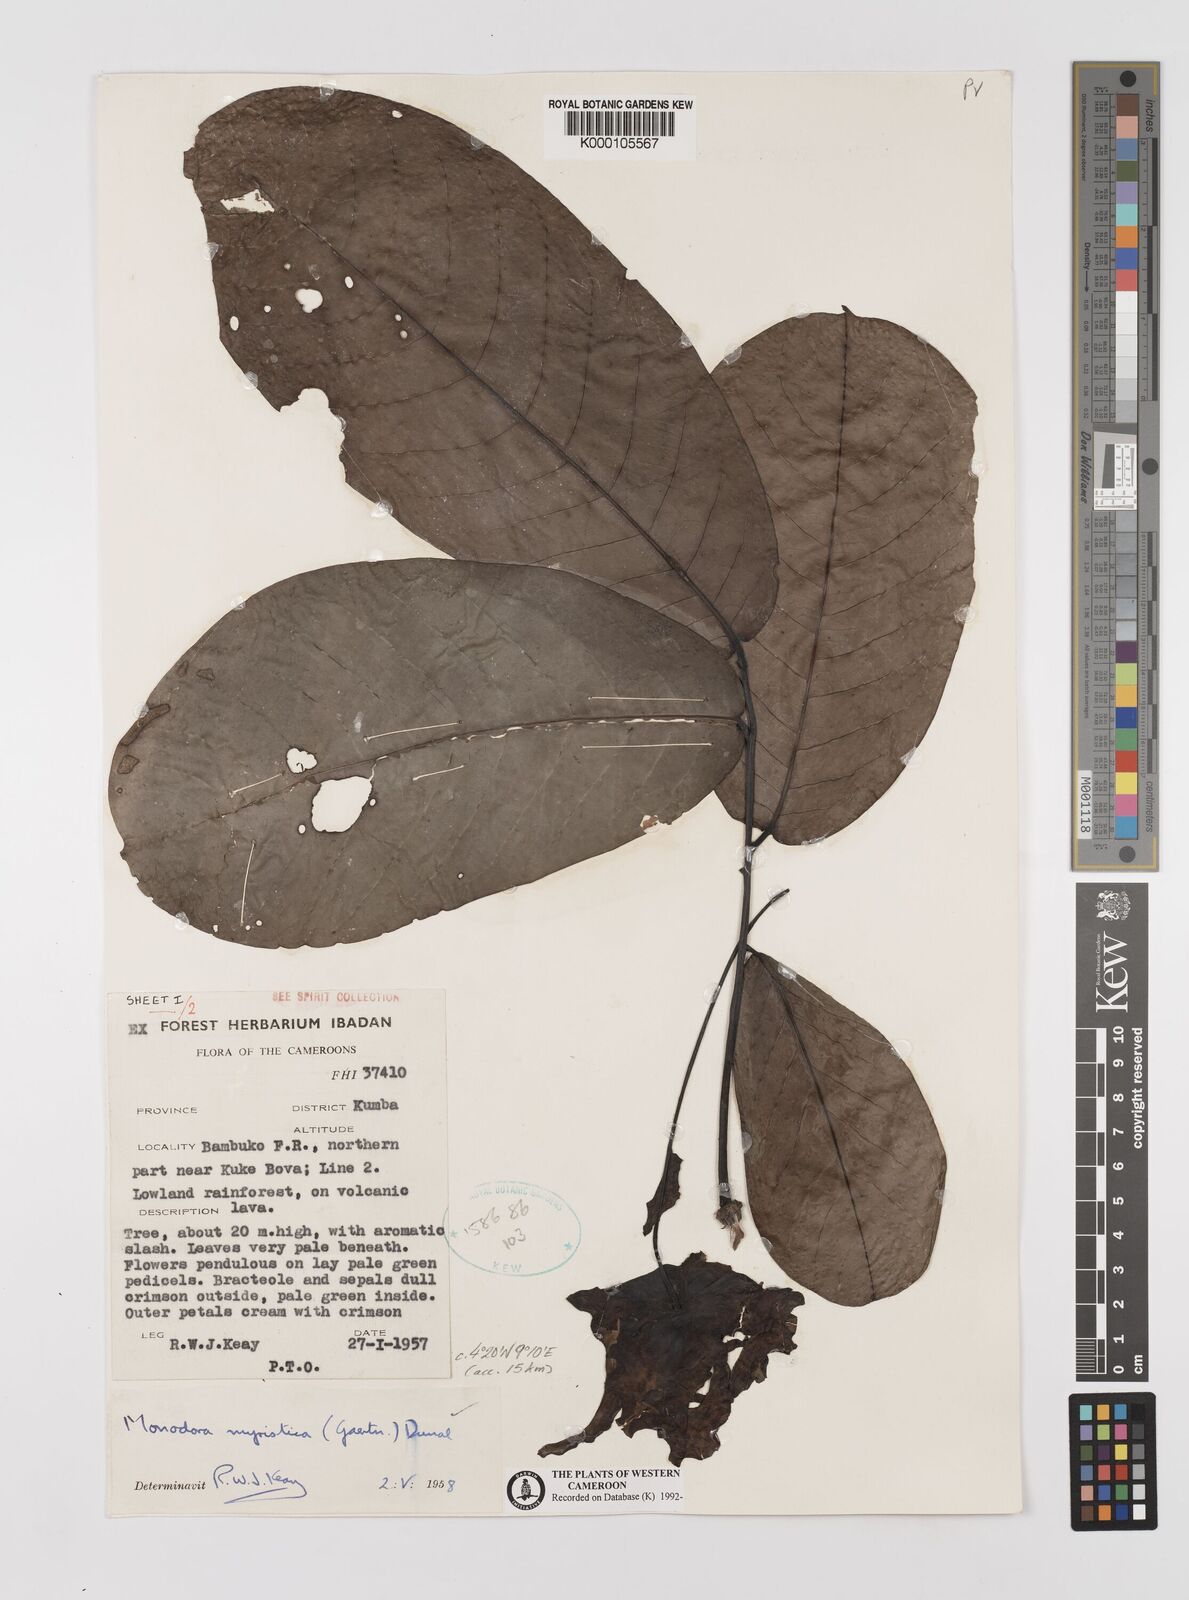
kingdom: Plantae
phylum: Tracheophyta
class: Magnoliopsida
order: Magnoliales
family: Annonaceae
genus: Monodora
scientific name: Monodora myristica
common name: African nutmeg
